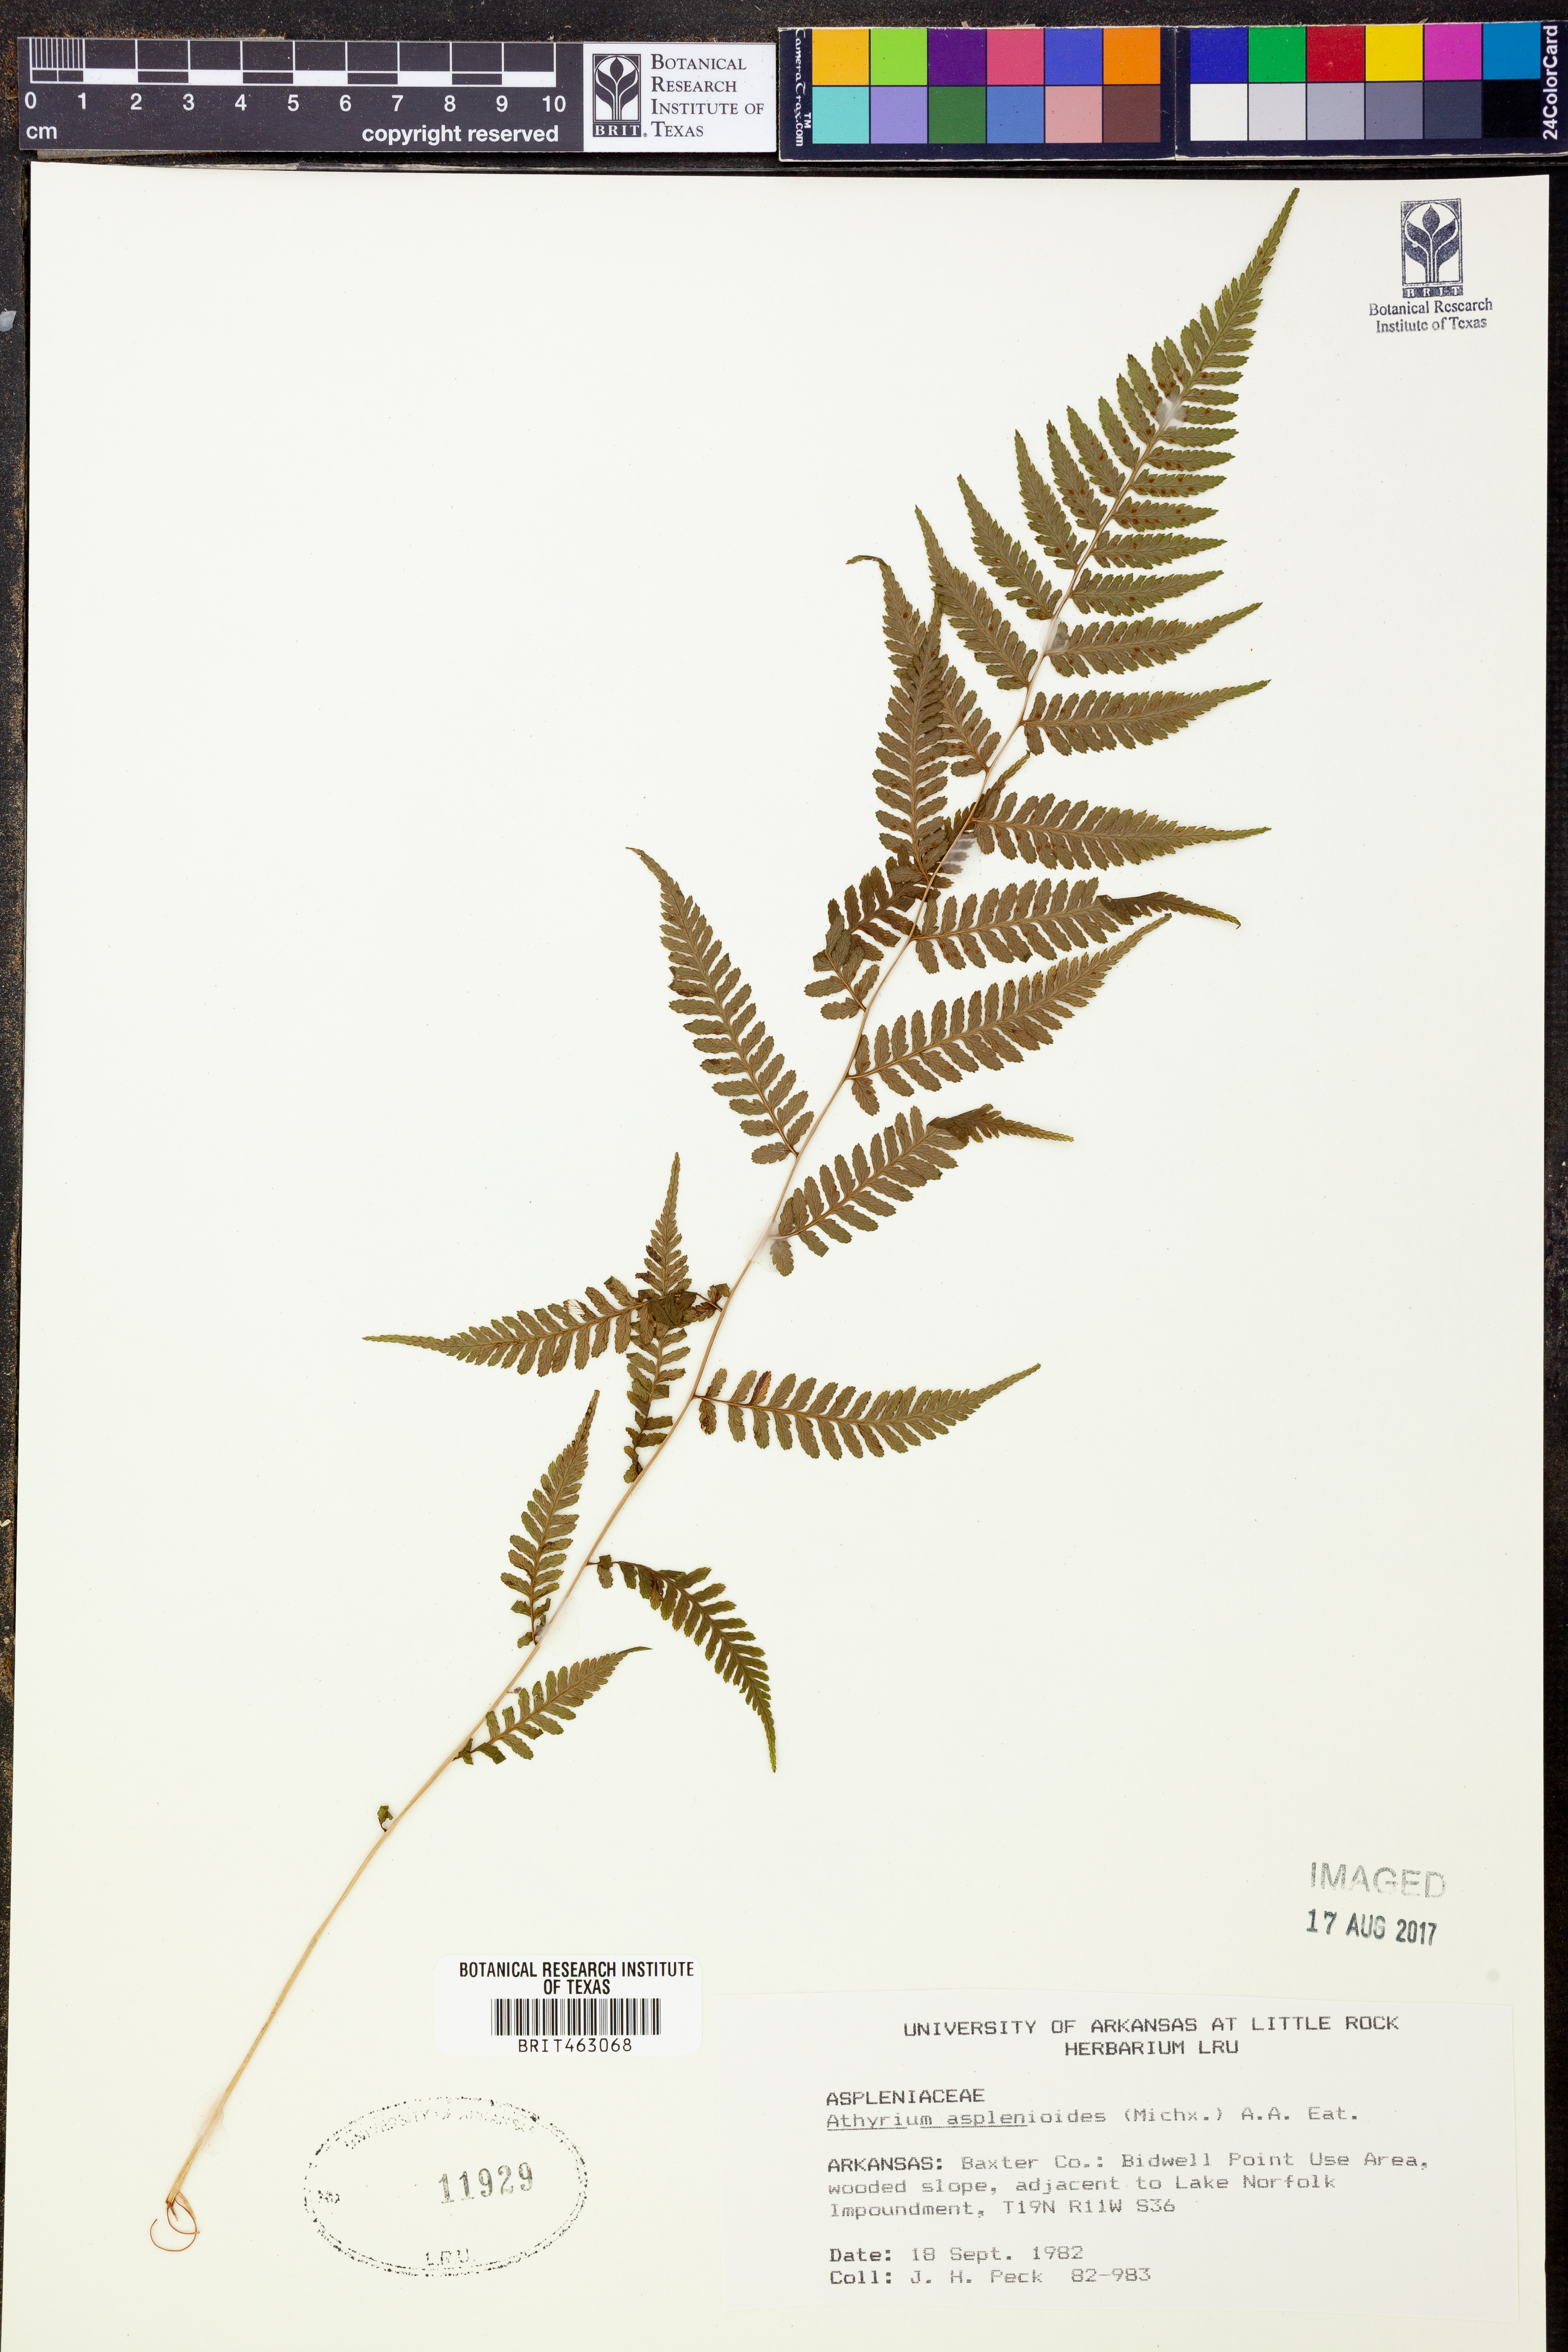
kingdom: Plantae
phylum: Tracheophyta
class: Polypodiopsida
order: Polypodiales
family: Athyriaceae
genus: Athyrium
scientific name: Athyrium asplenioides
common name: Southern lady fern
